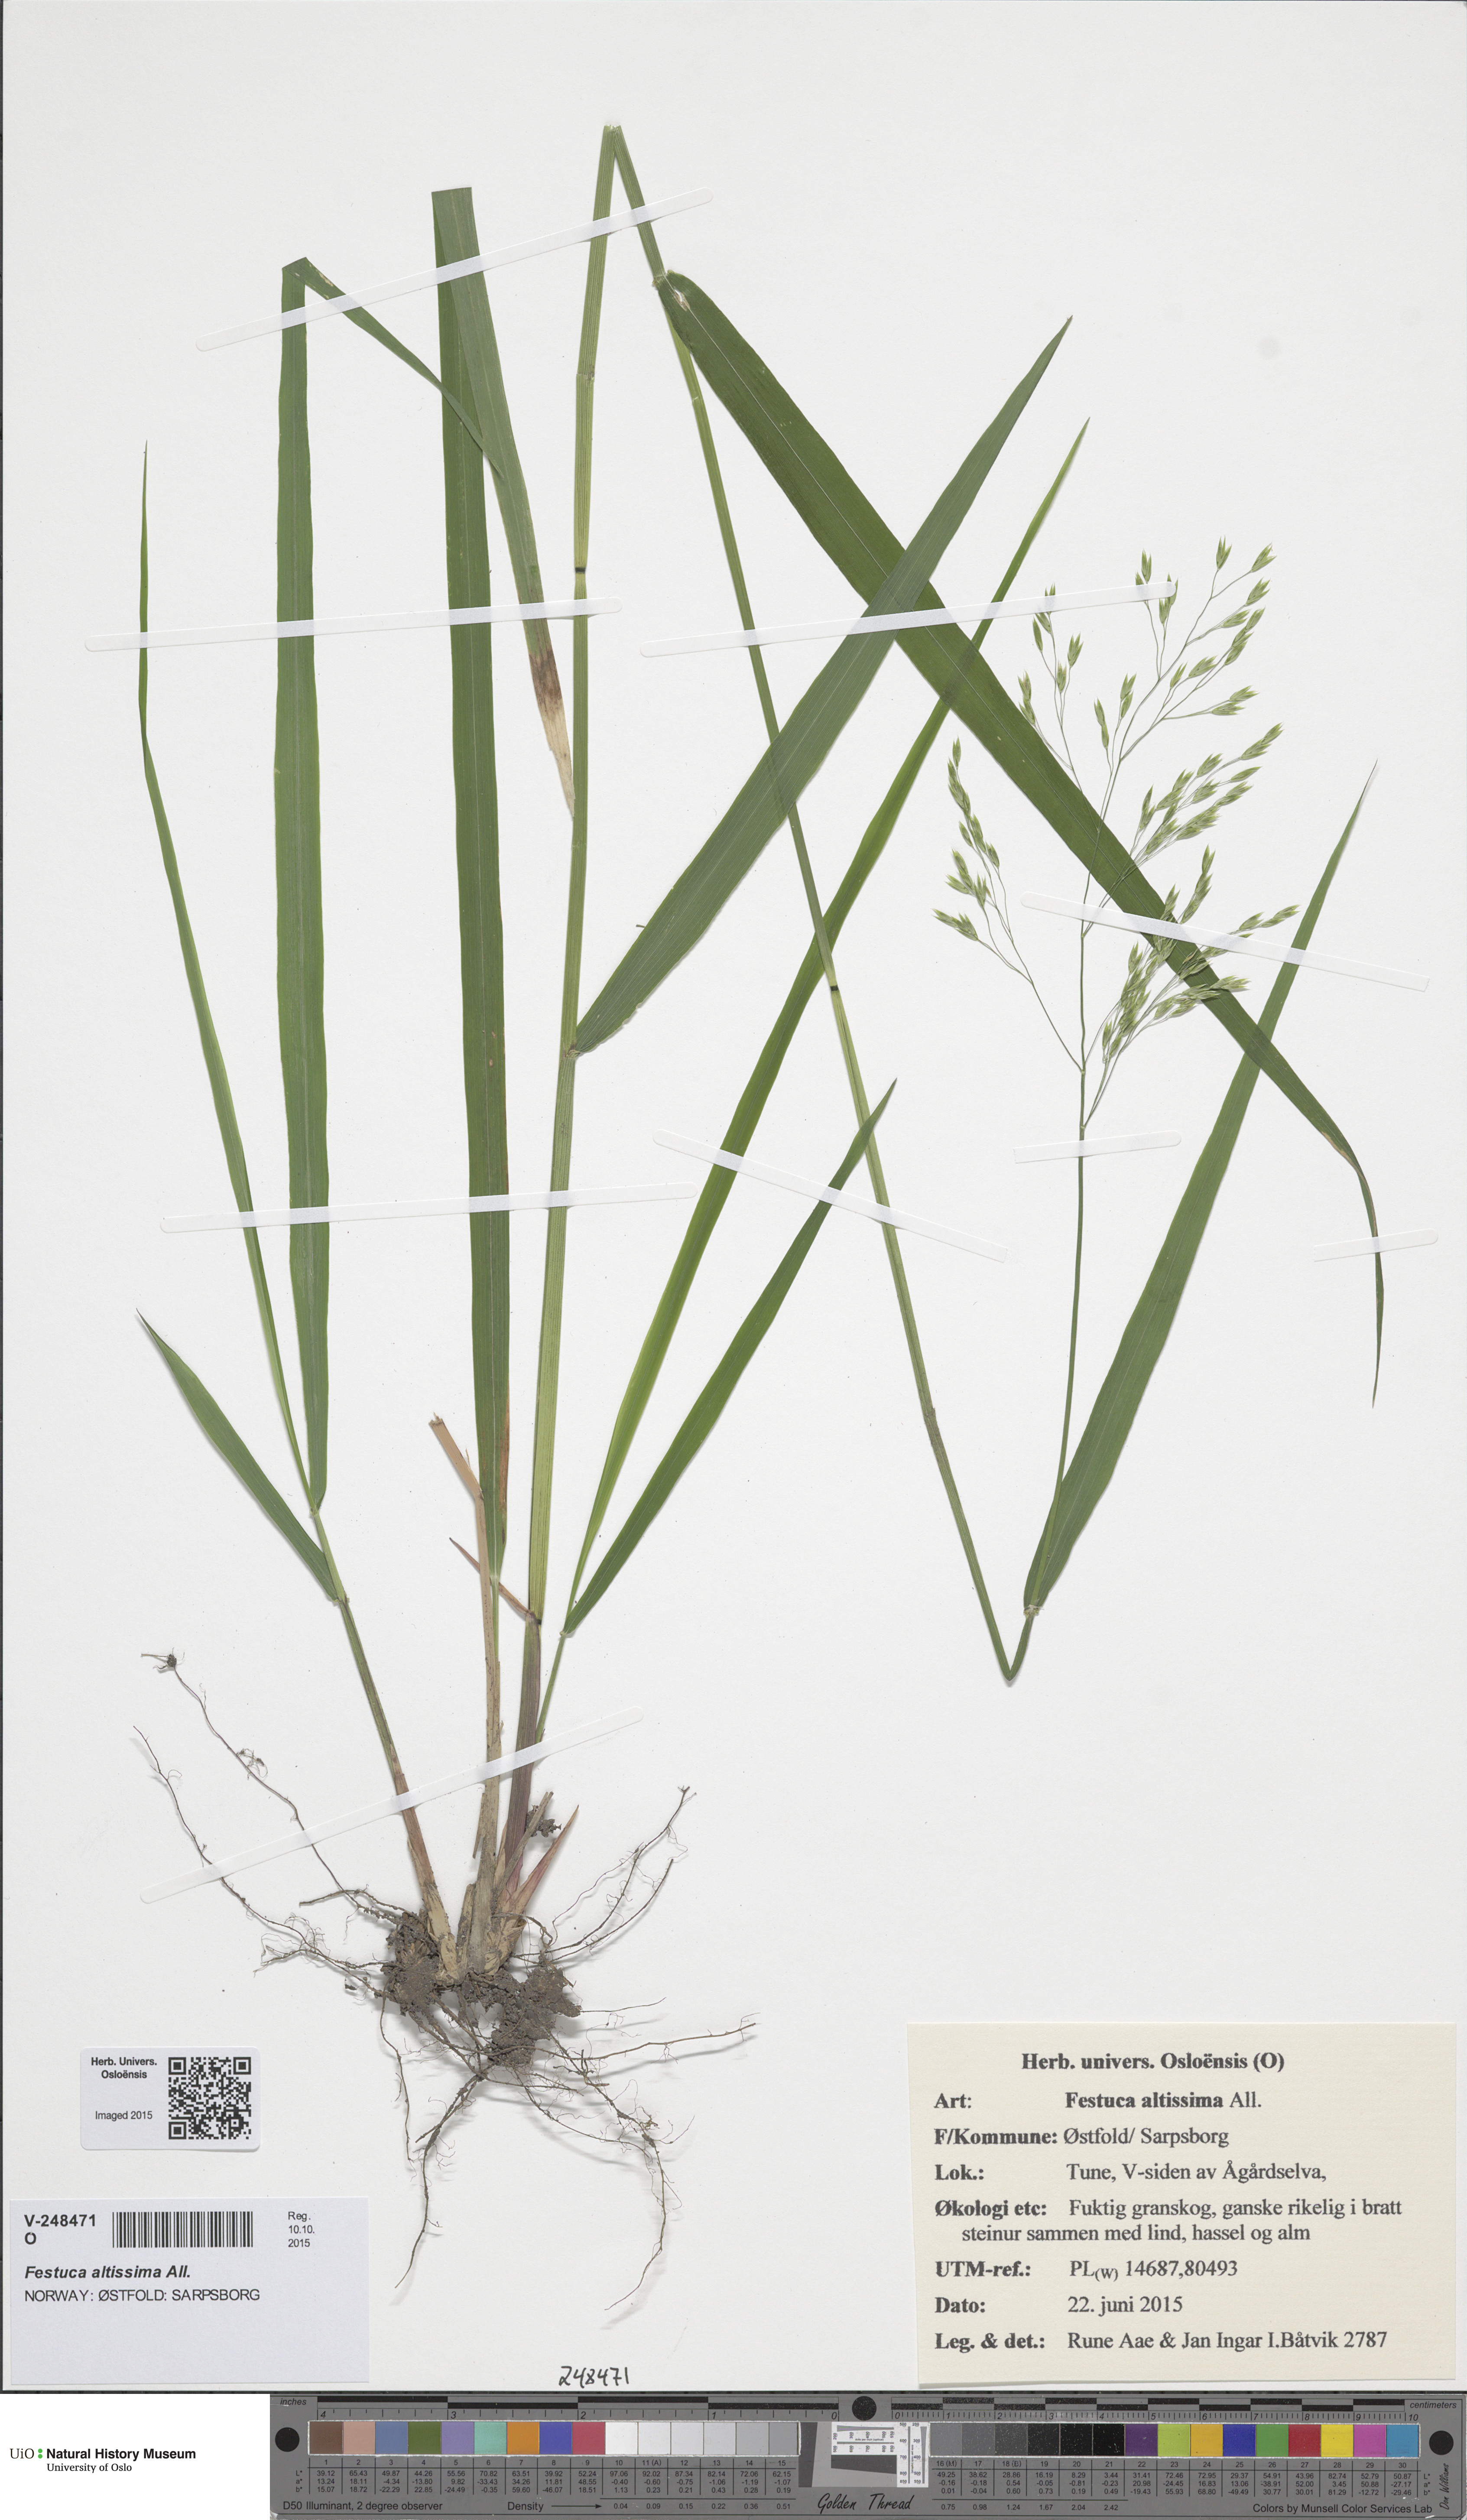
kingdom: Plantae
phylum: Tracheophyta
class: Liliopsida
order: Poales
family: Poaceae
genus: Festuca
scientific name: Festuca altissima
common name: Wood fescue
